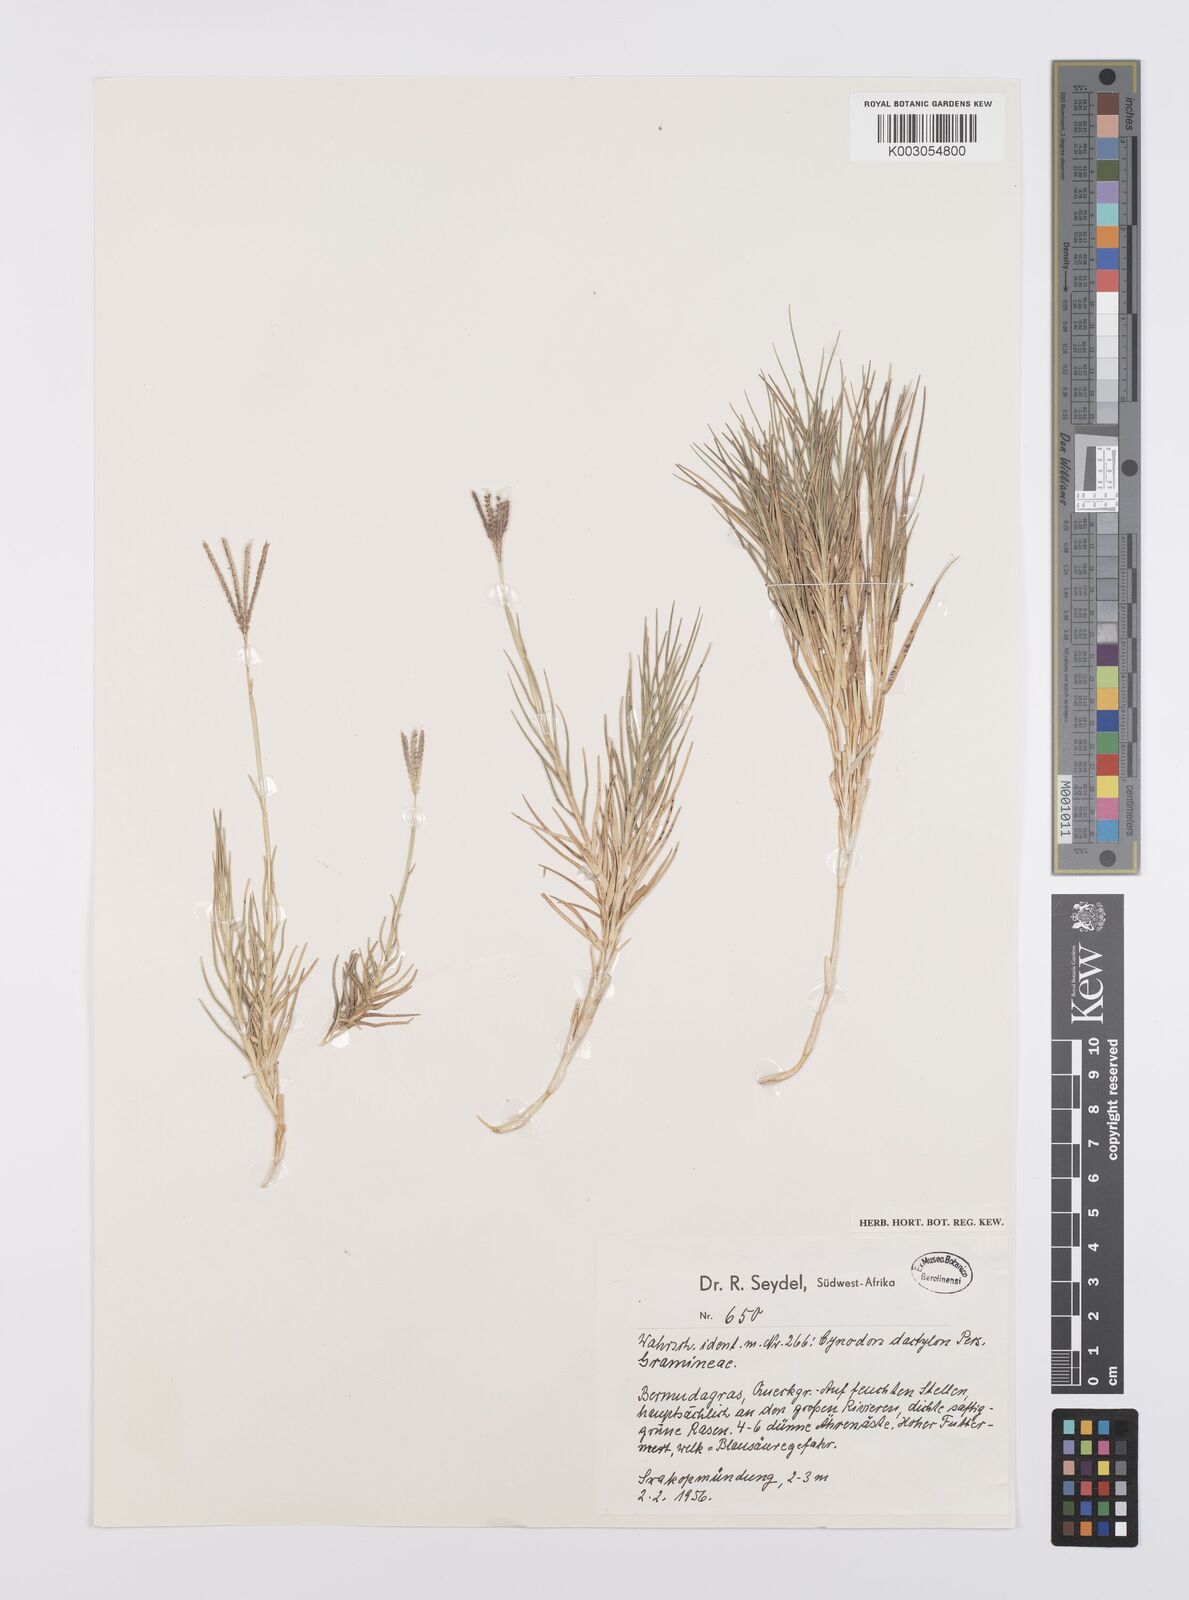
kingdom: Plantae
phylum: Tracheophyta
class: Liliopsida
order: Poales
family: Poaceae
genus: Cynodon
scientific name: Cynodon dactylon
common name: Bermuda grass
